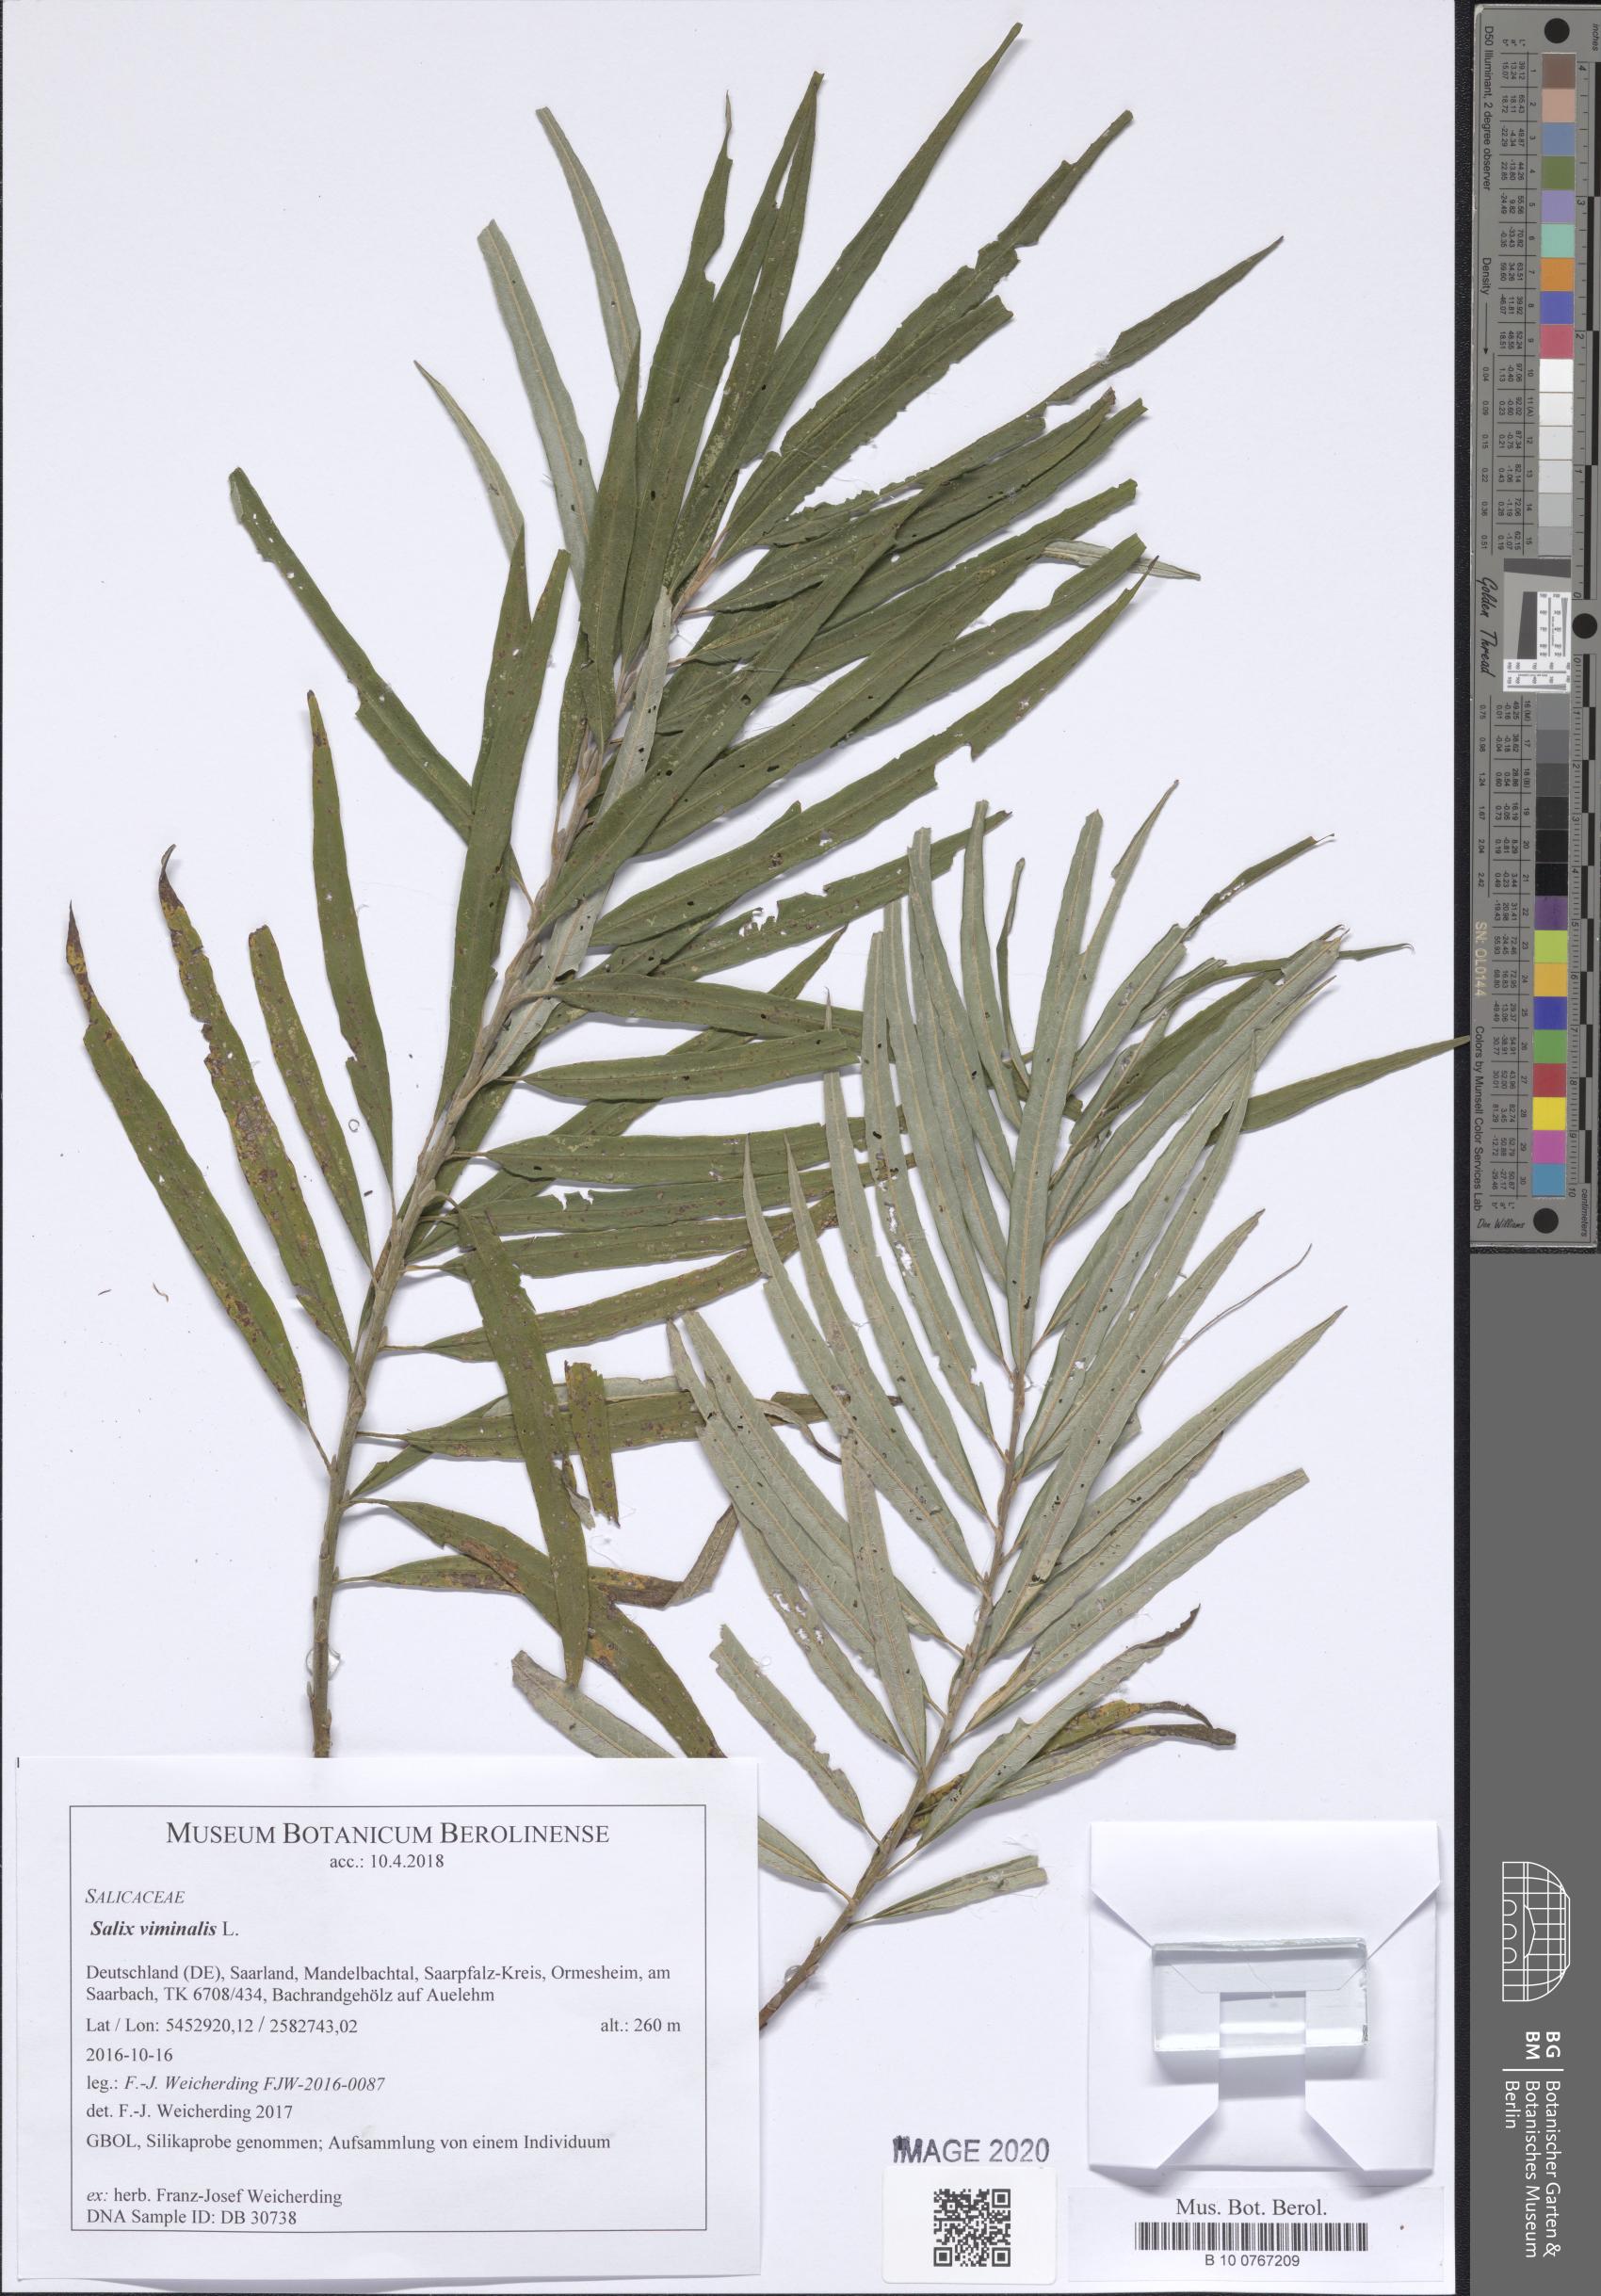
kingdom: Plantae
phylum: Tracheophyta
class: Magnoliopsida
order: Malpighiales
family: Salicaceae
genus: Salix
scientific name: Salix viminalis
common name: Osier
